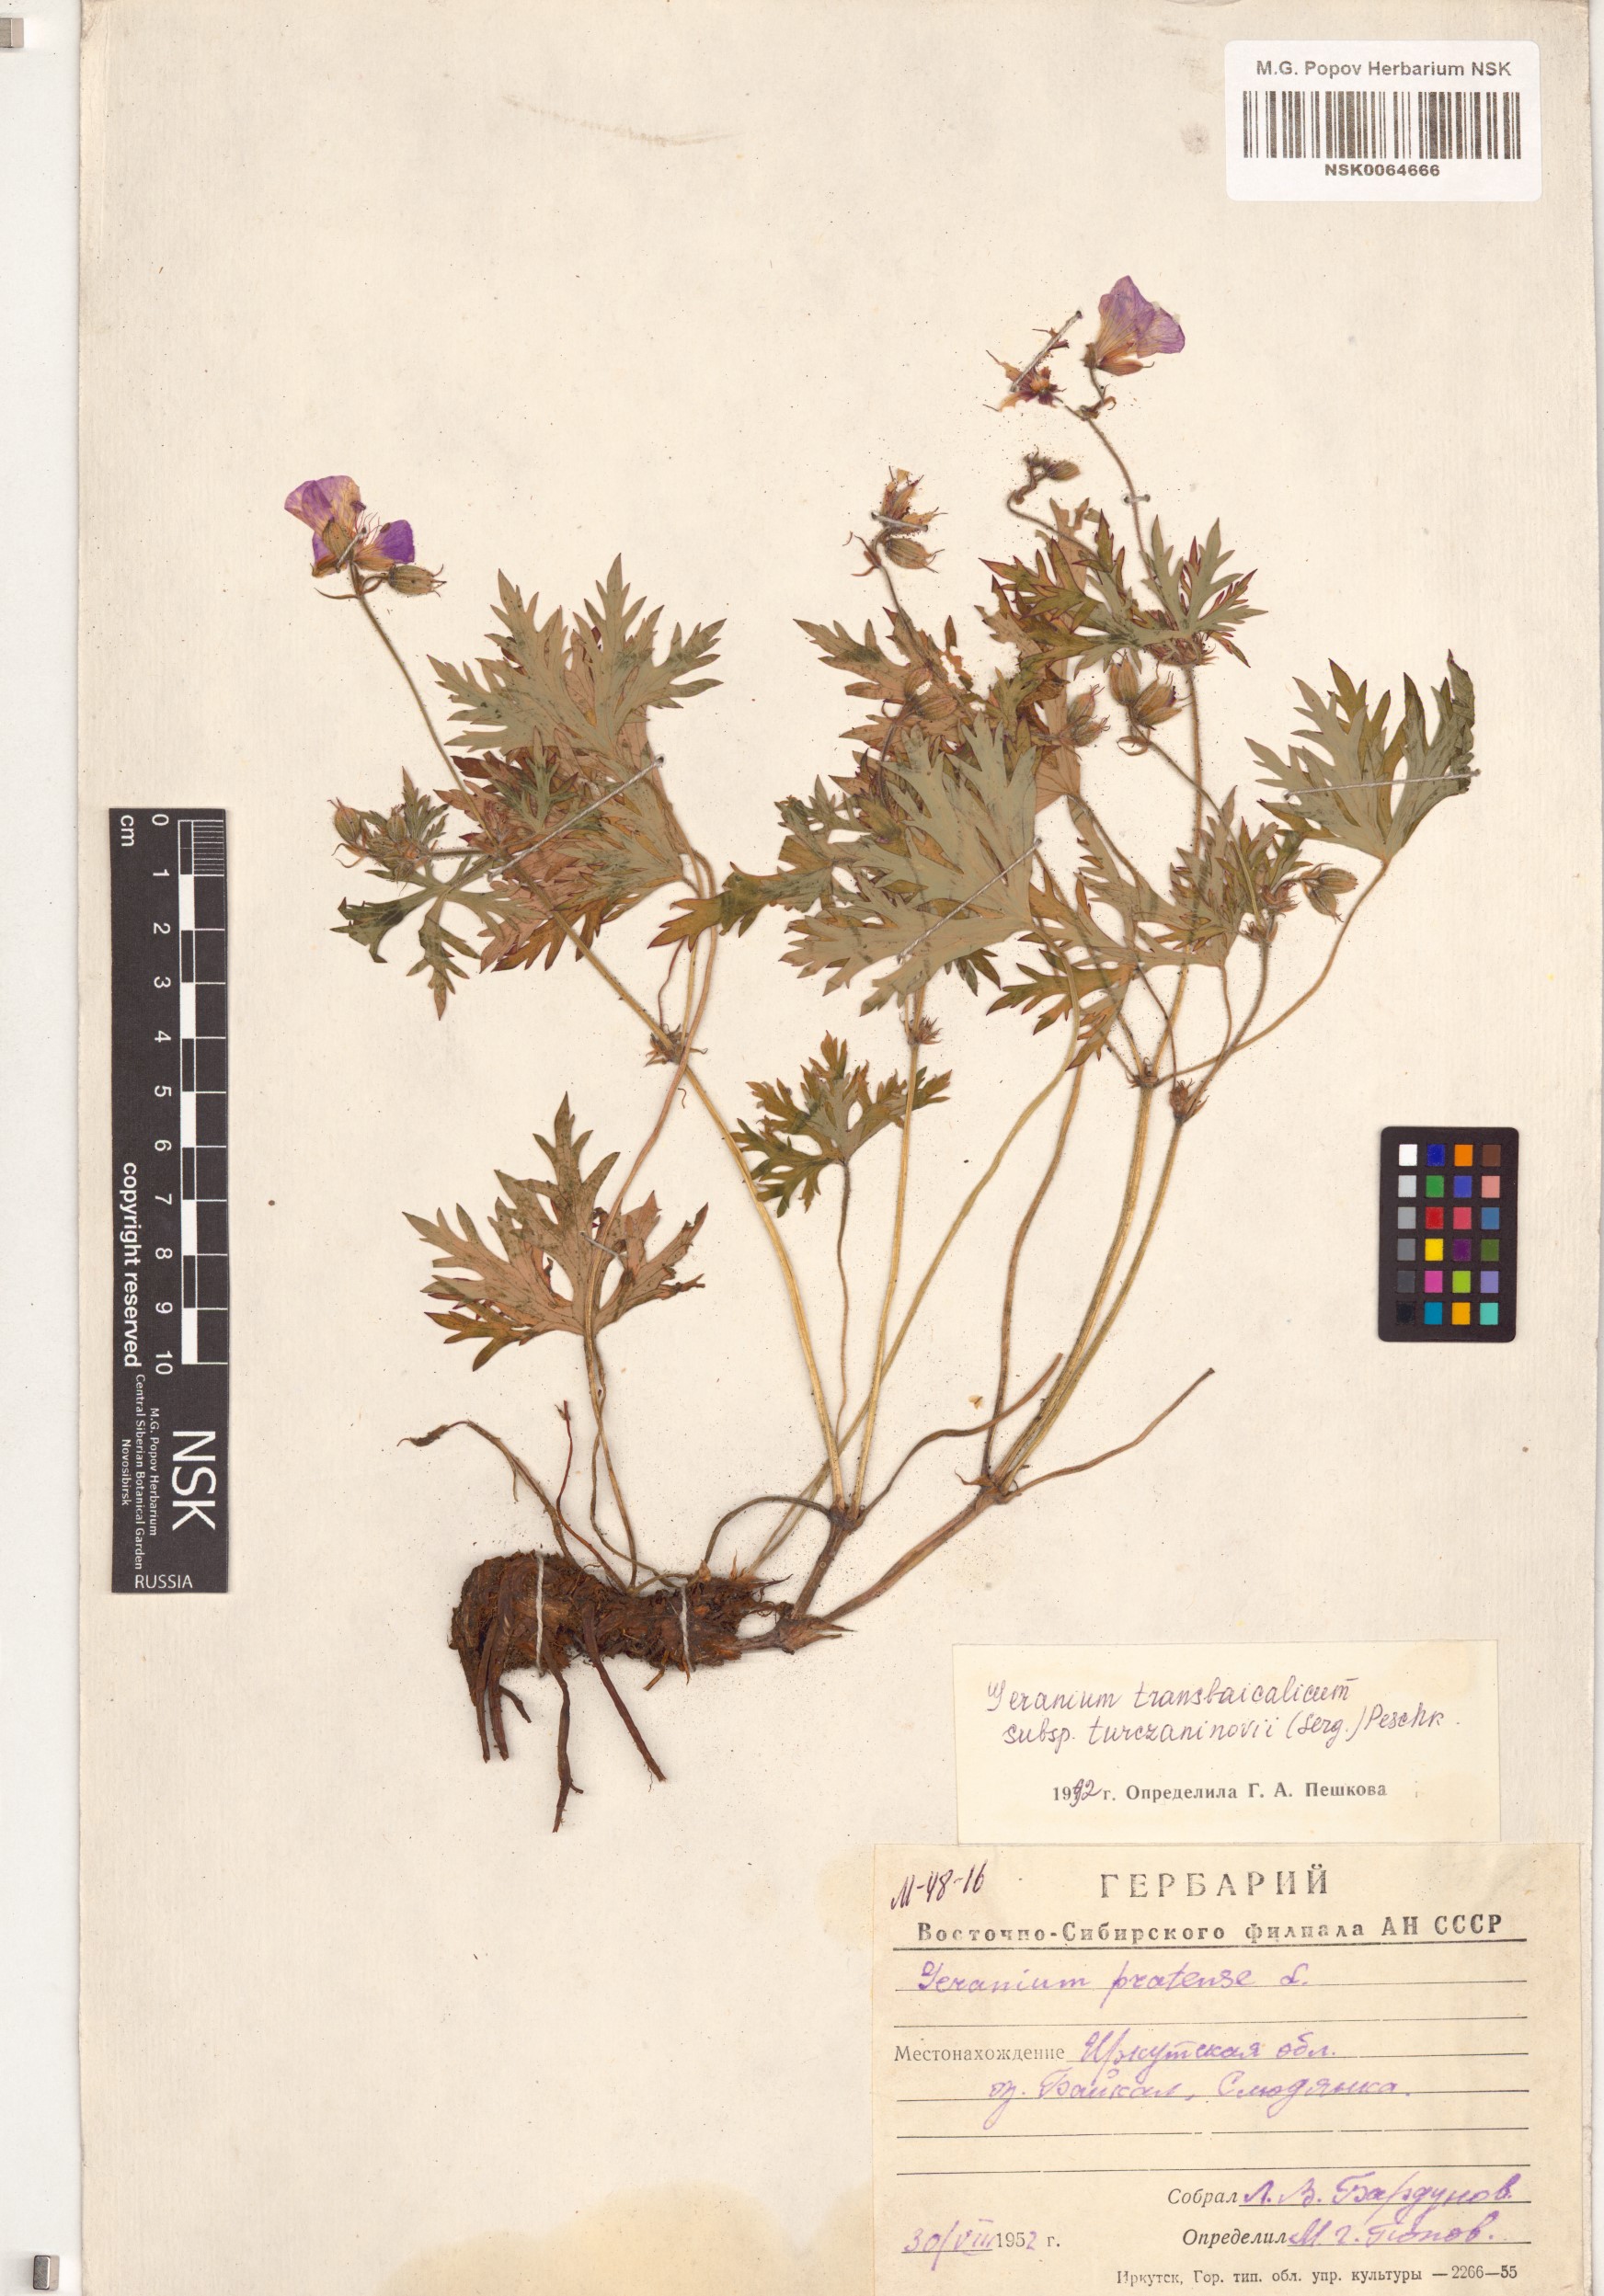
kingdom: Plantae
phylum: Tracheophyta
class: Magnoliopsida
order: Geraniales
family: Geraniaceae
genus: Geranium
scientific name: Geranium pratense
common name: Meadow crane's-bill
